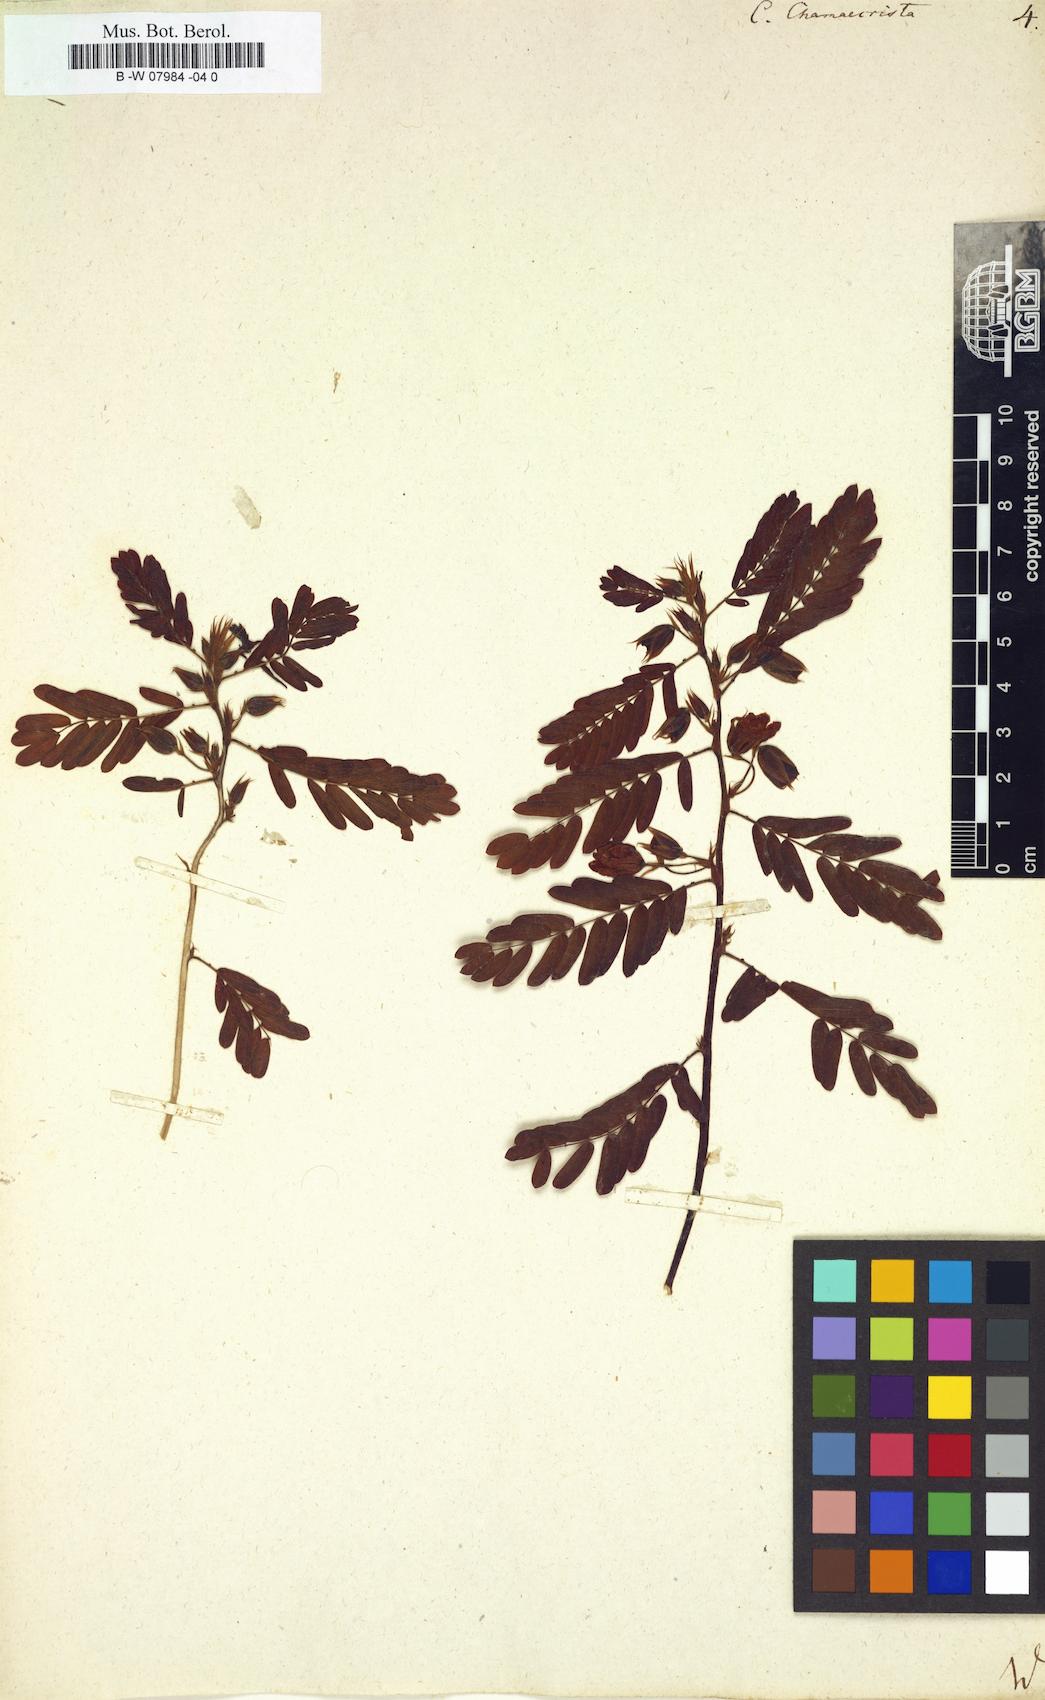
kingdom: Plantae
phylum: Tracheophyta
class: Magnoliopsida
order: Fabales
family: Fabaceae
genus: Chamaecrista
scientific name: Chamaecrista
